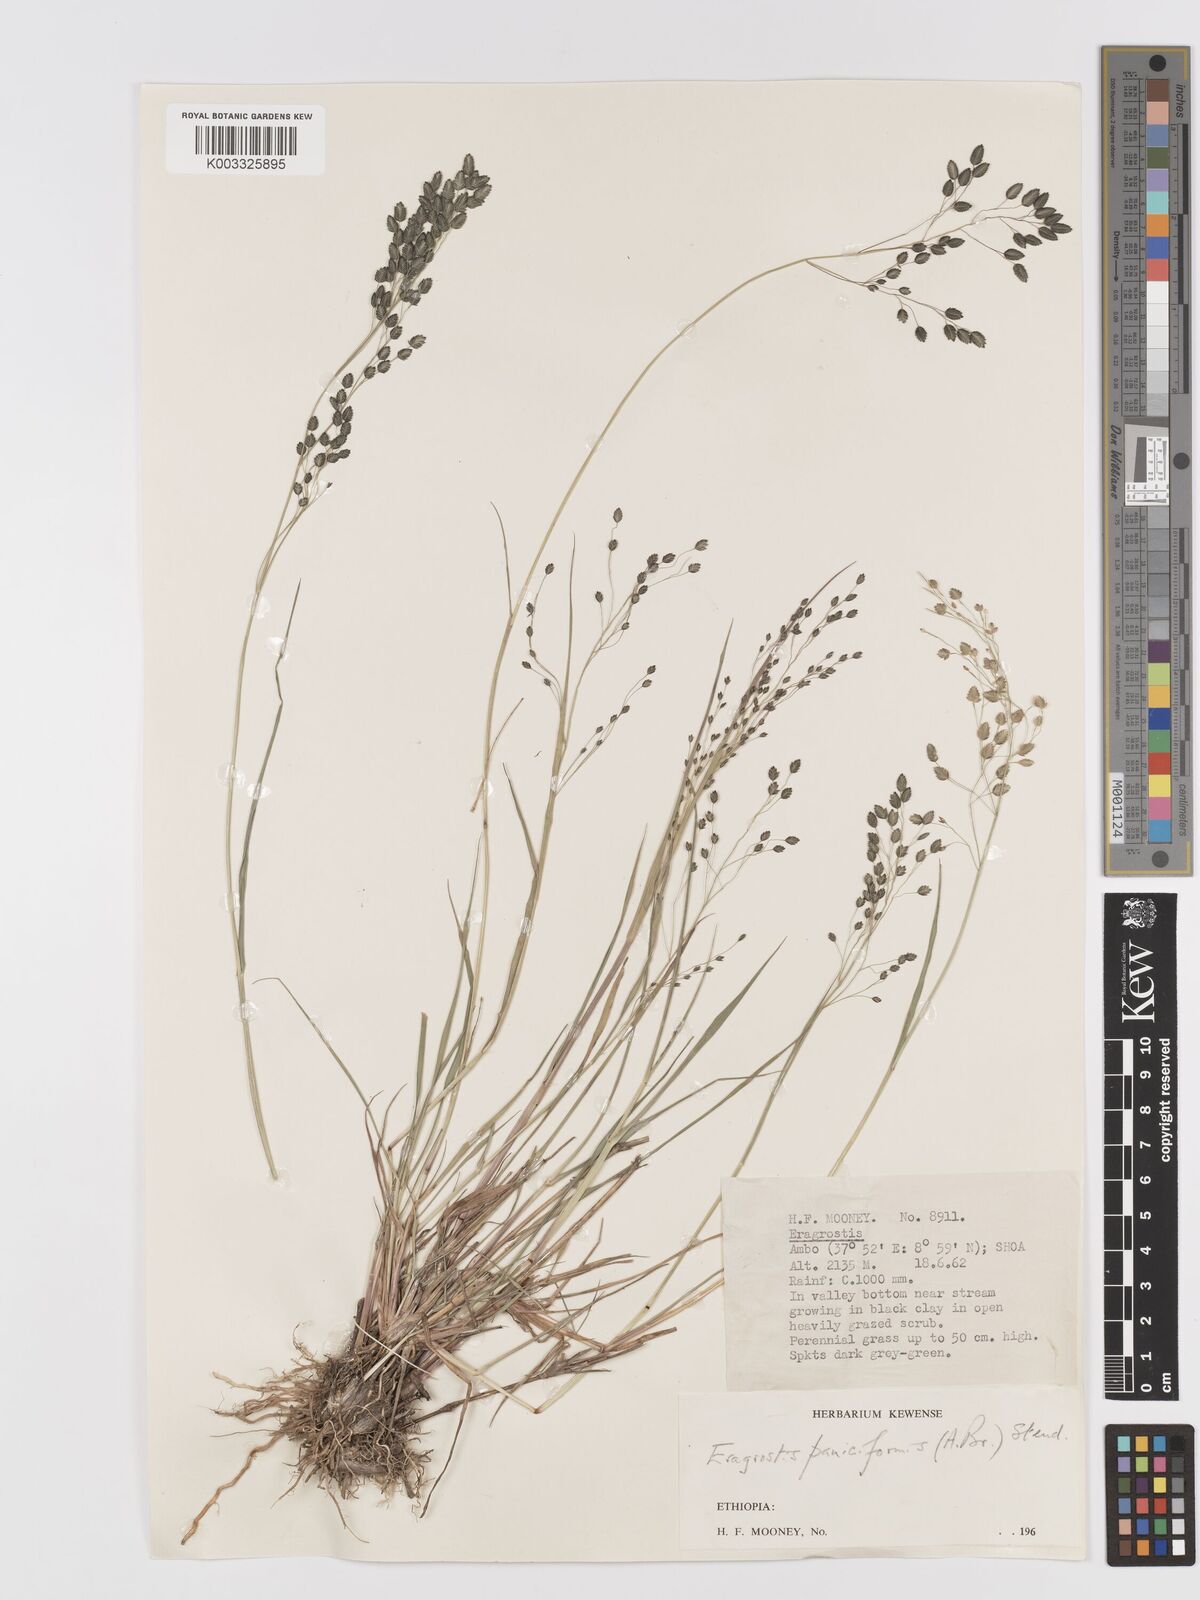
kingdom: Plantae
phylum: Tracheophyta
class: Liliopsida
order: Poales
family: Poaceae
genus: Eragrostis
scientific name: Eragrostis paniciformis
